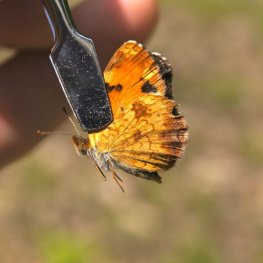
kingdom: Animalia
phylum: Arthropoda
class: Insecta
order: Lepidoptera
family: Nymphalidae
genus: Phyciodes
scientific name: Phyciodes tharos
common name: Northern Crescent
